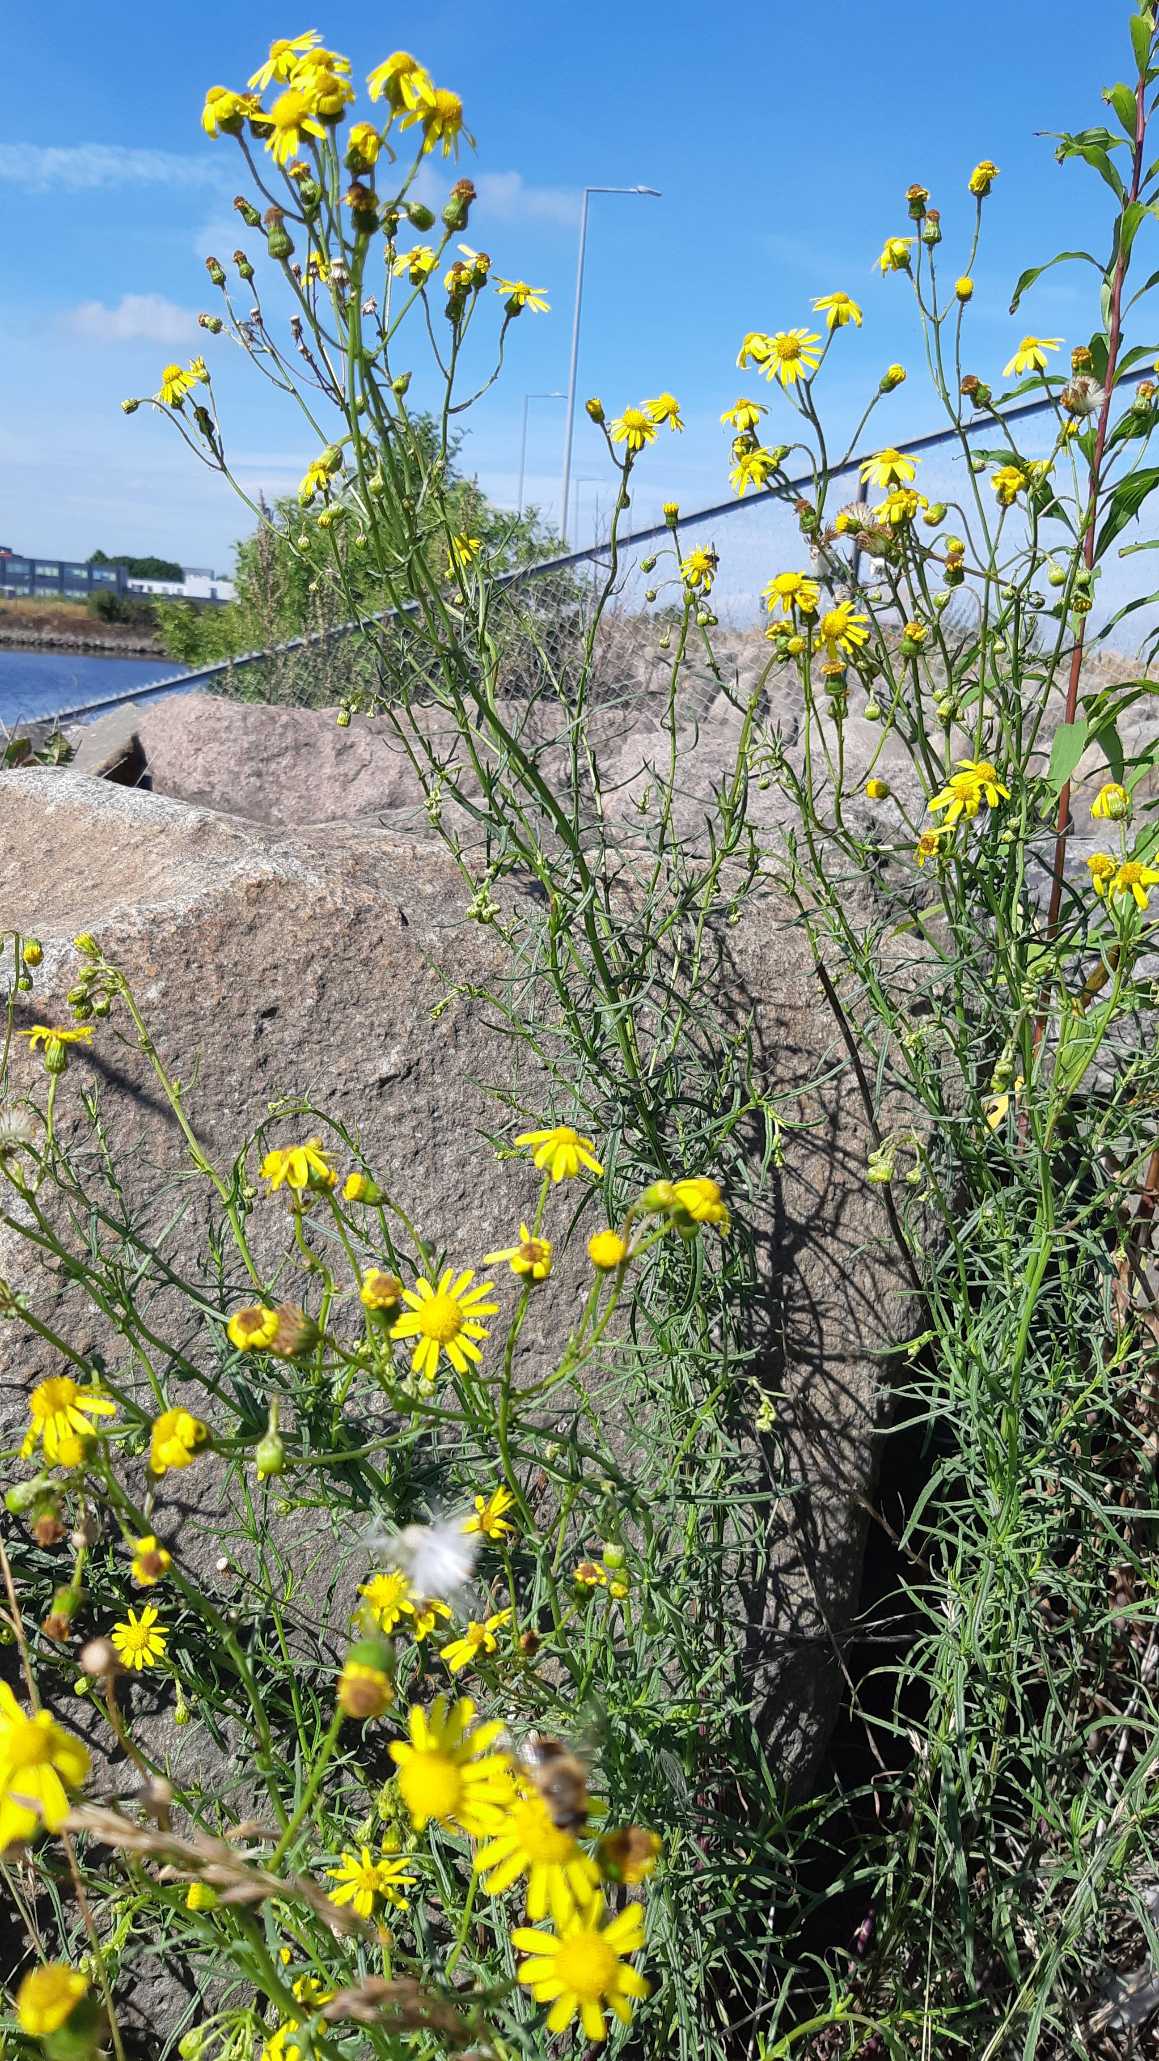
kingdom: Plantae
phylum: Tracheophyta
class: Magnoliopsida
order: Asterales
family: Asteraceae
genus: Senecio
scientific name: Senecio inaequidens
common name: Smalbladet brandbæger
